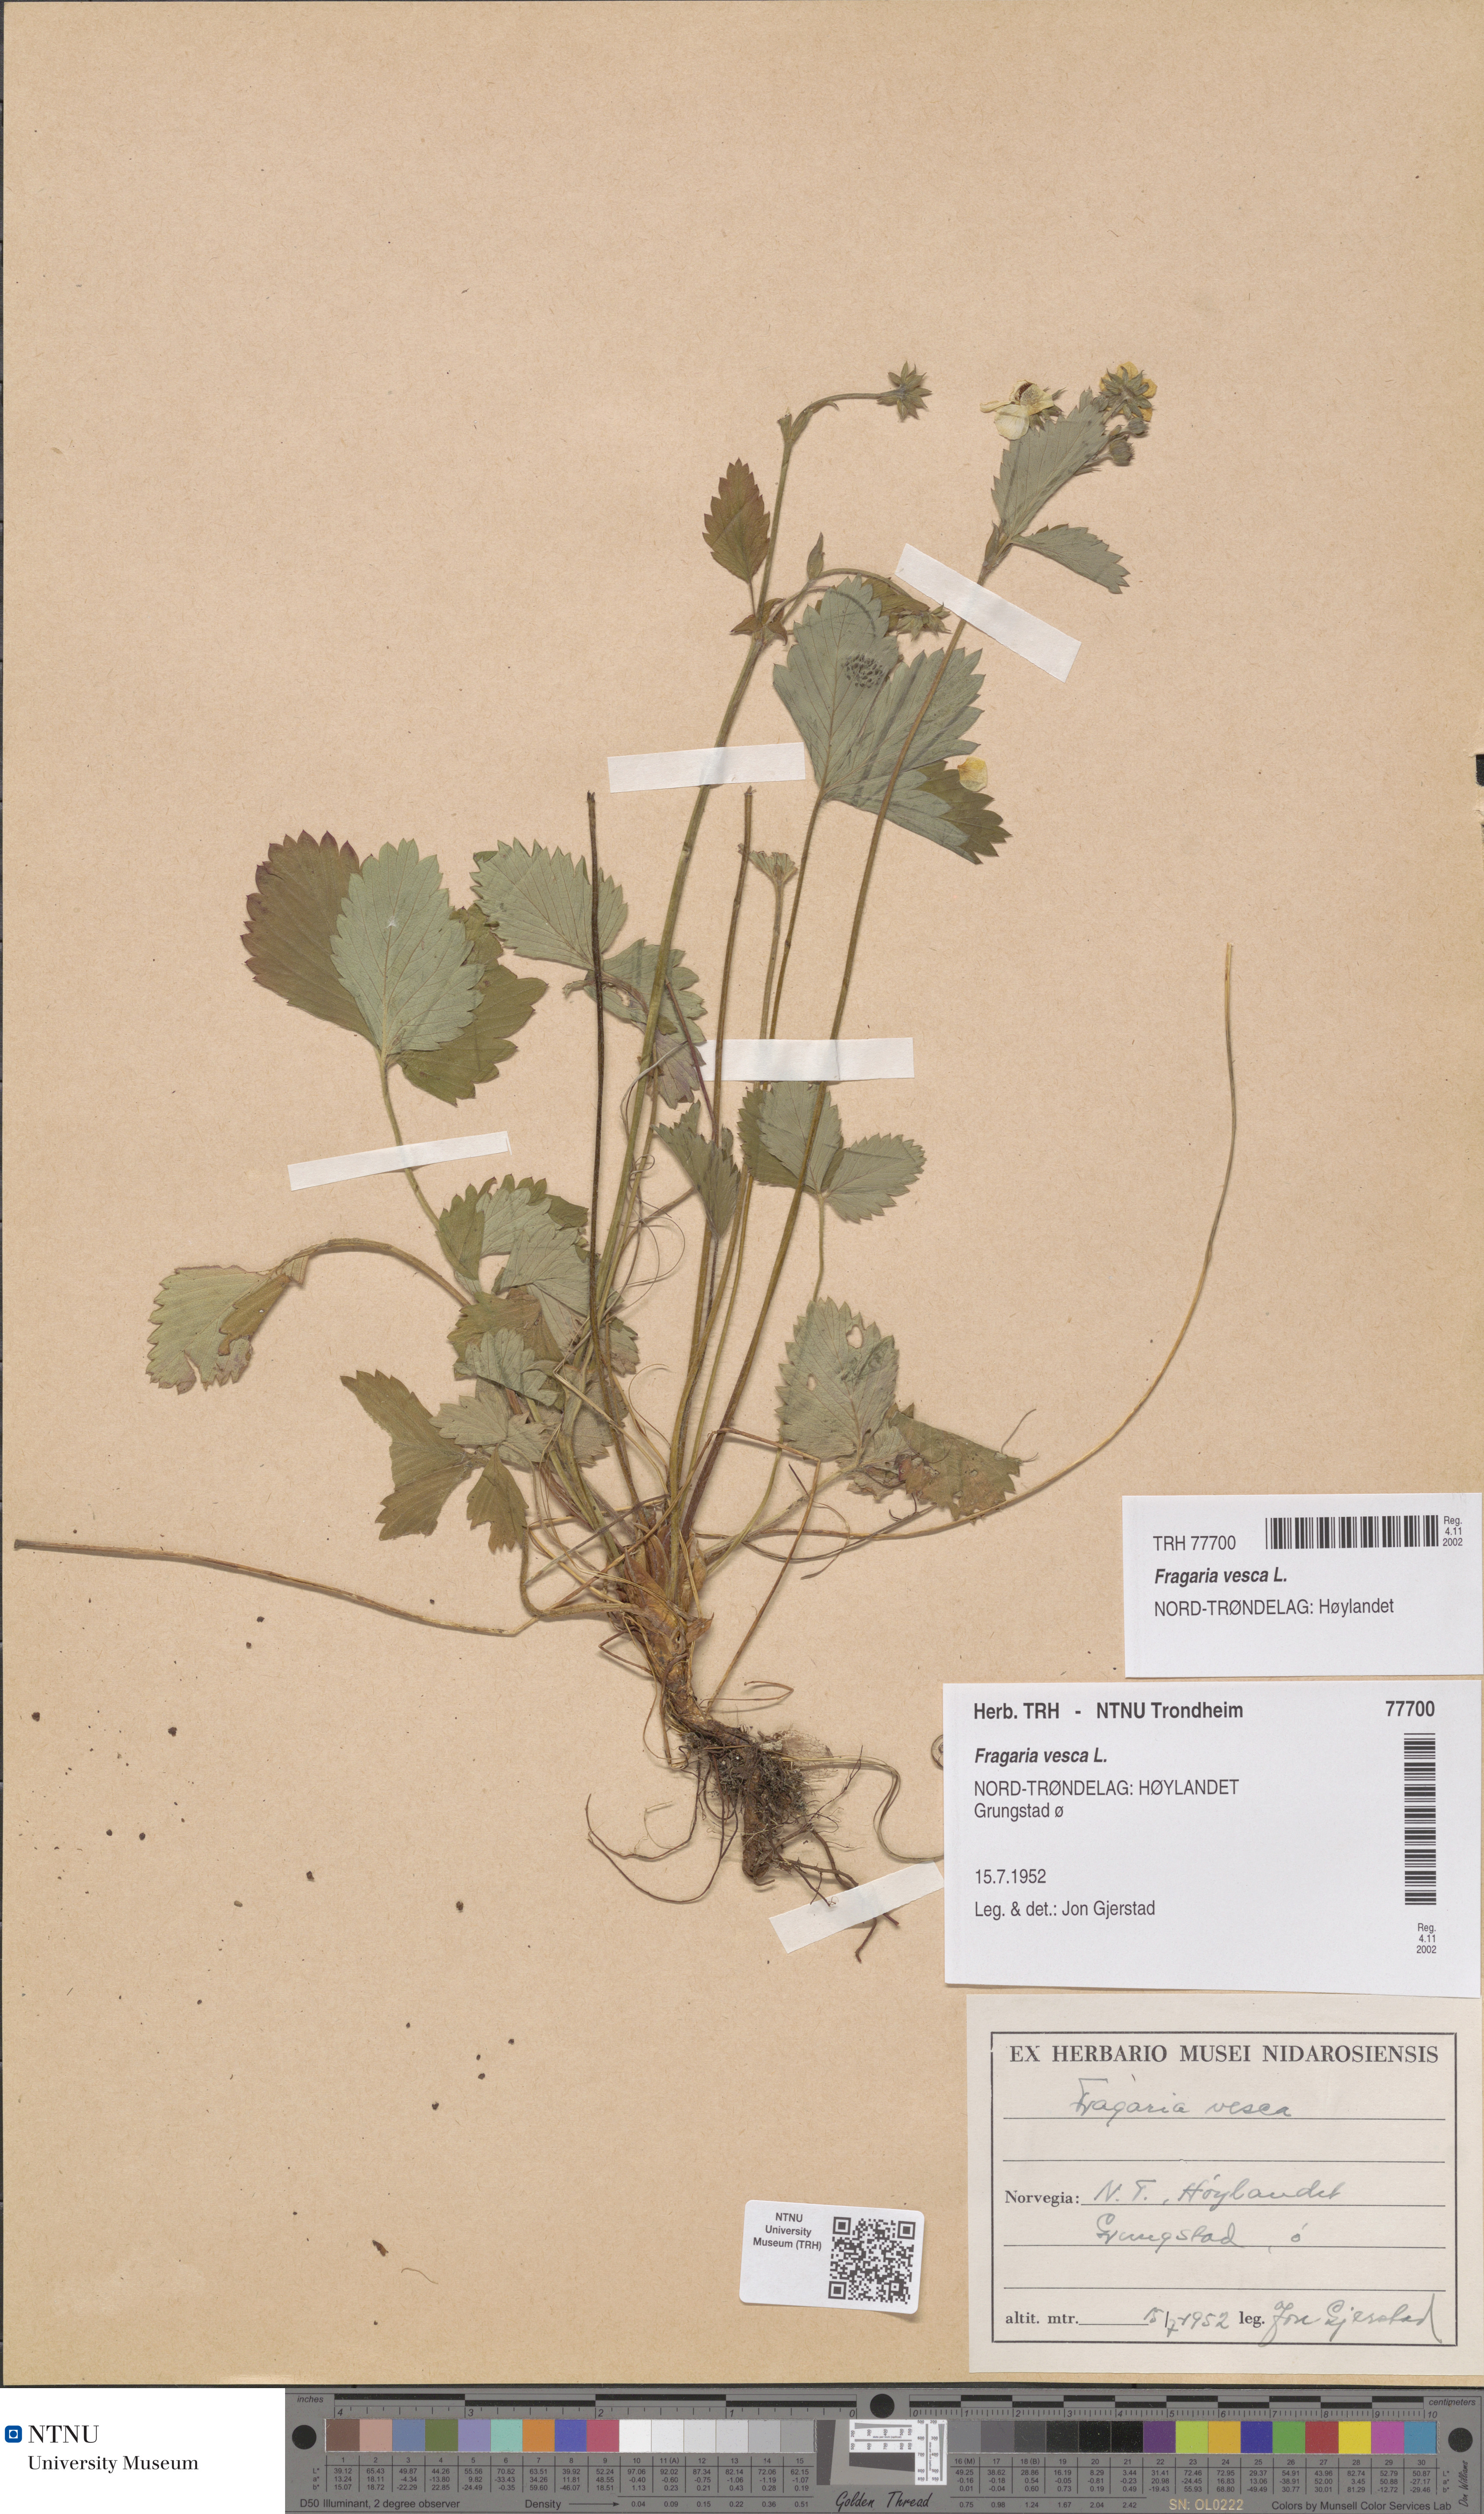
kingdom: Plantae
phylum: Tracheophyta
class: Magnoliopsida
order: Rosales
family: Rosaceae
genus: Fragaria
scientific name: Fragaria vesca
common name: Wild strawberry
